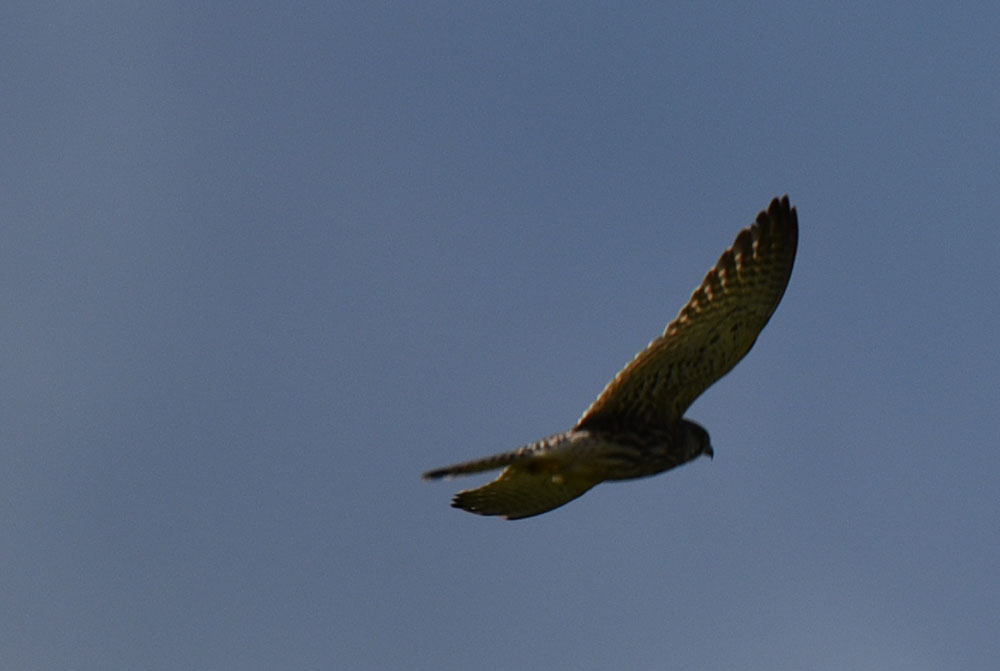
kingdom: Animalia
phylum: Chordata
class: Aves
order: Falconiformes
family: Falconidae
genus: Falco
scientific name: Falco tinnunculus
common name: Common kestrel
